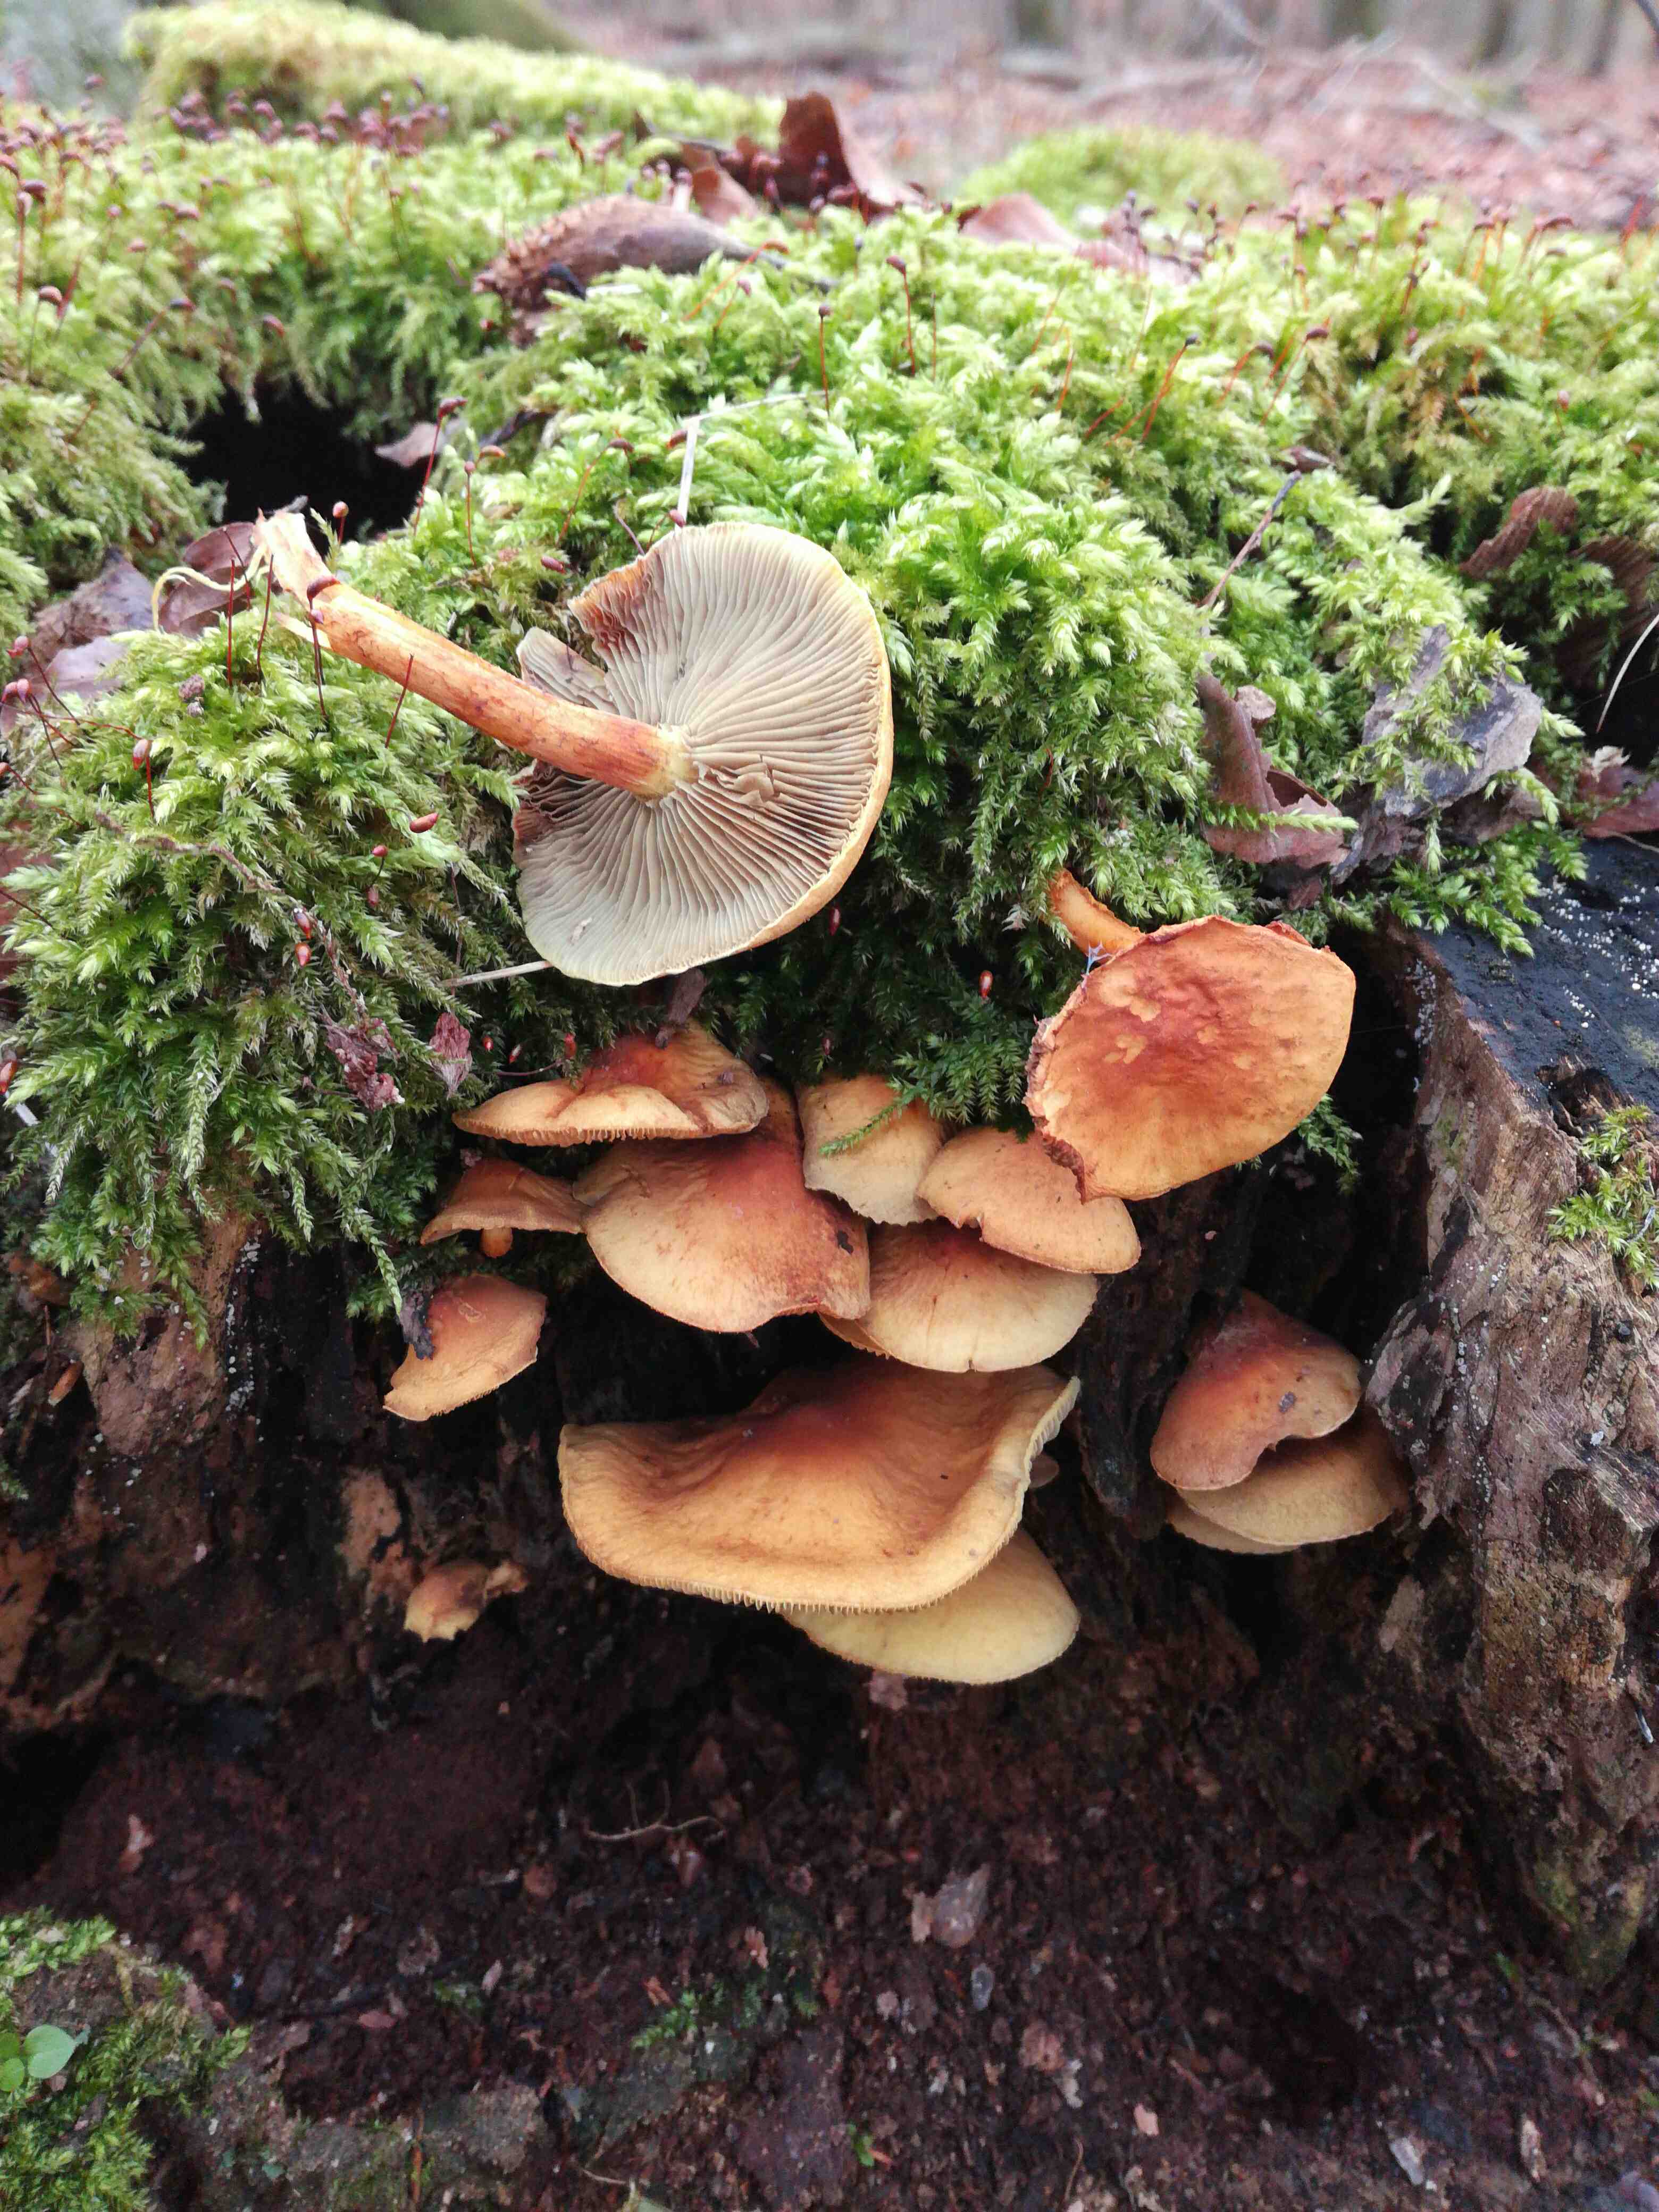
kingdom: Fungi
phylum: Basidiomycota
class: Agaricomycetes
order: Agaricales
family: Strophariaceae
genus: Hypholoma
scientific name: Hypholoma fasciculare
